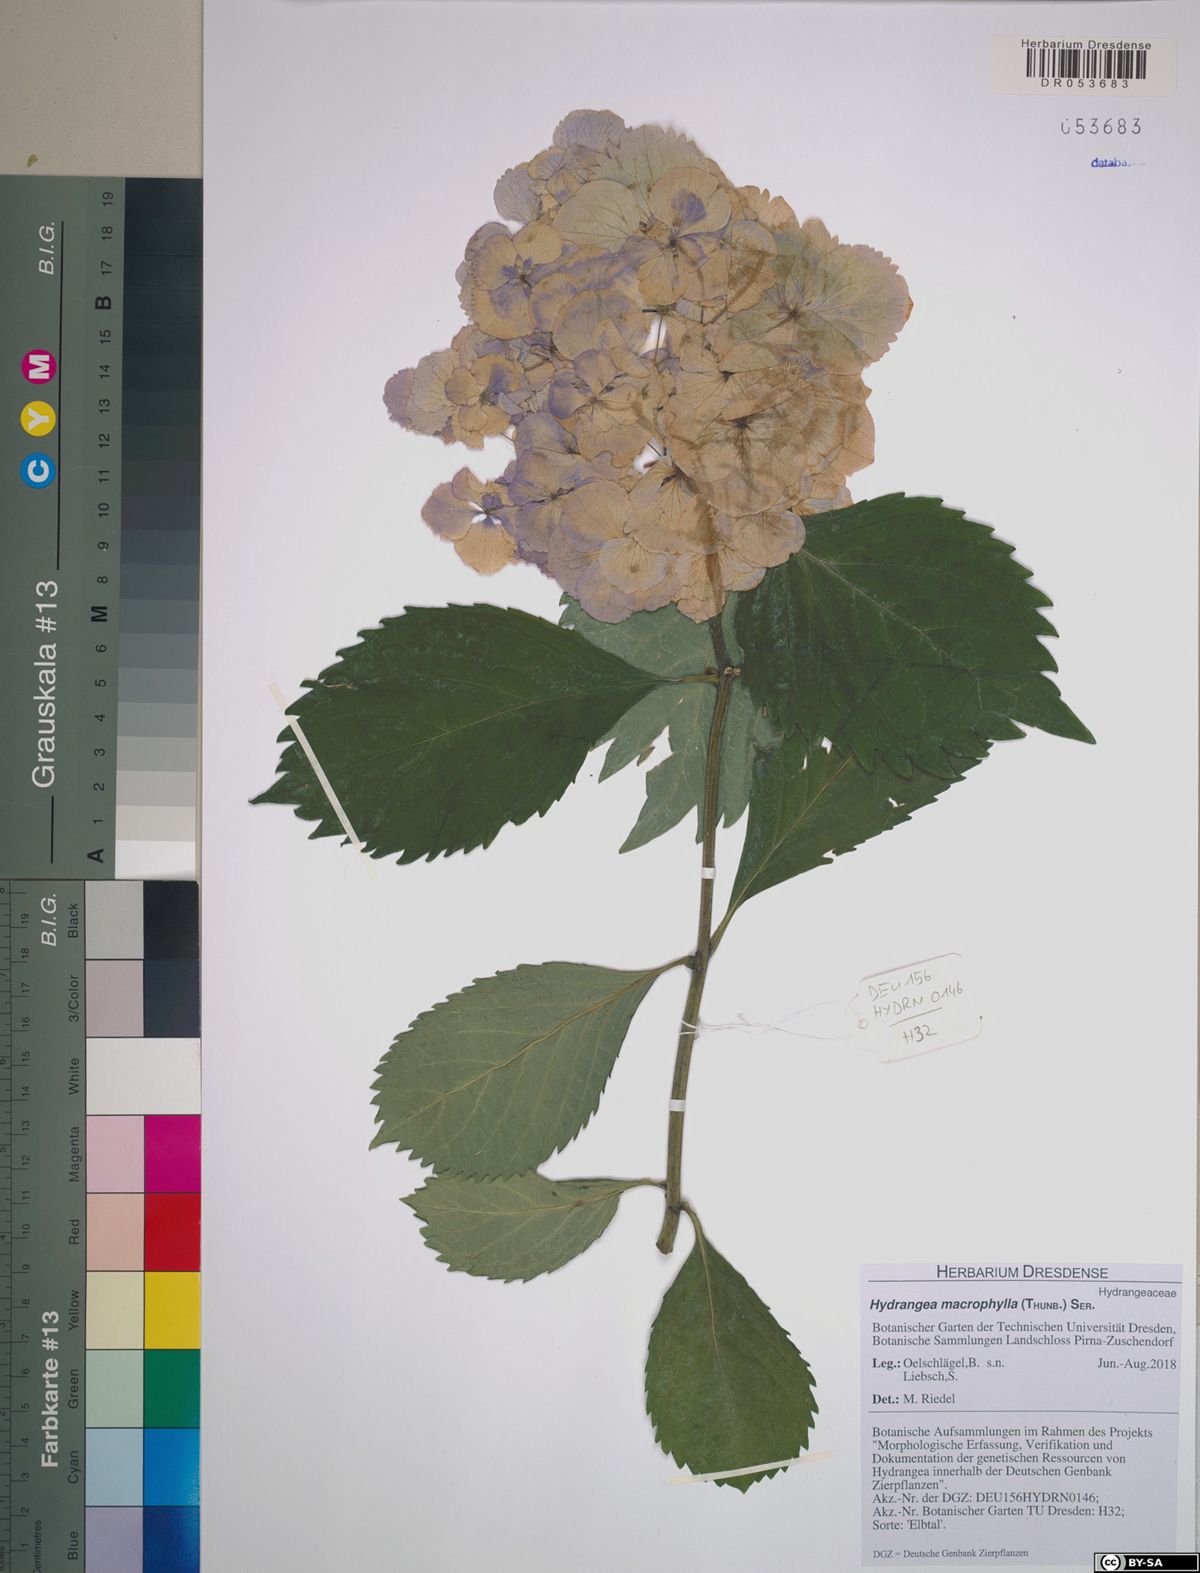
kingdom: Plantae
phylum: Tracheophyta
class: Magnoliopsida
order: Cornales
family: Hydrangeaceae
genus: Hydrangea
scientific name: Hydrangea macrophylla
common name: Hydrangea
